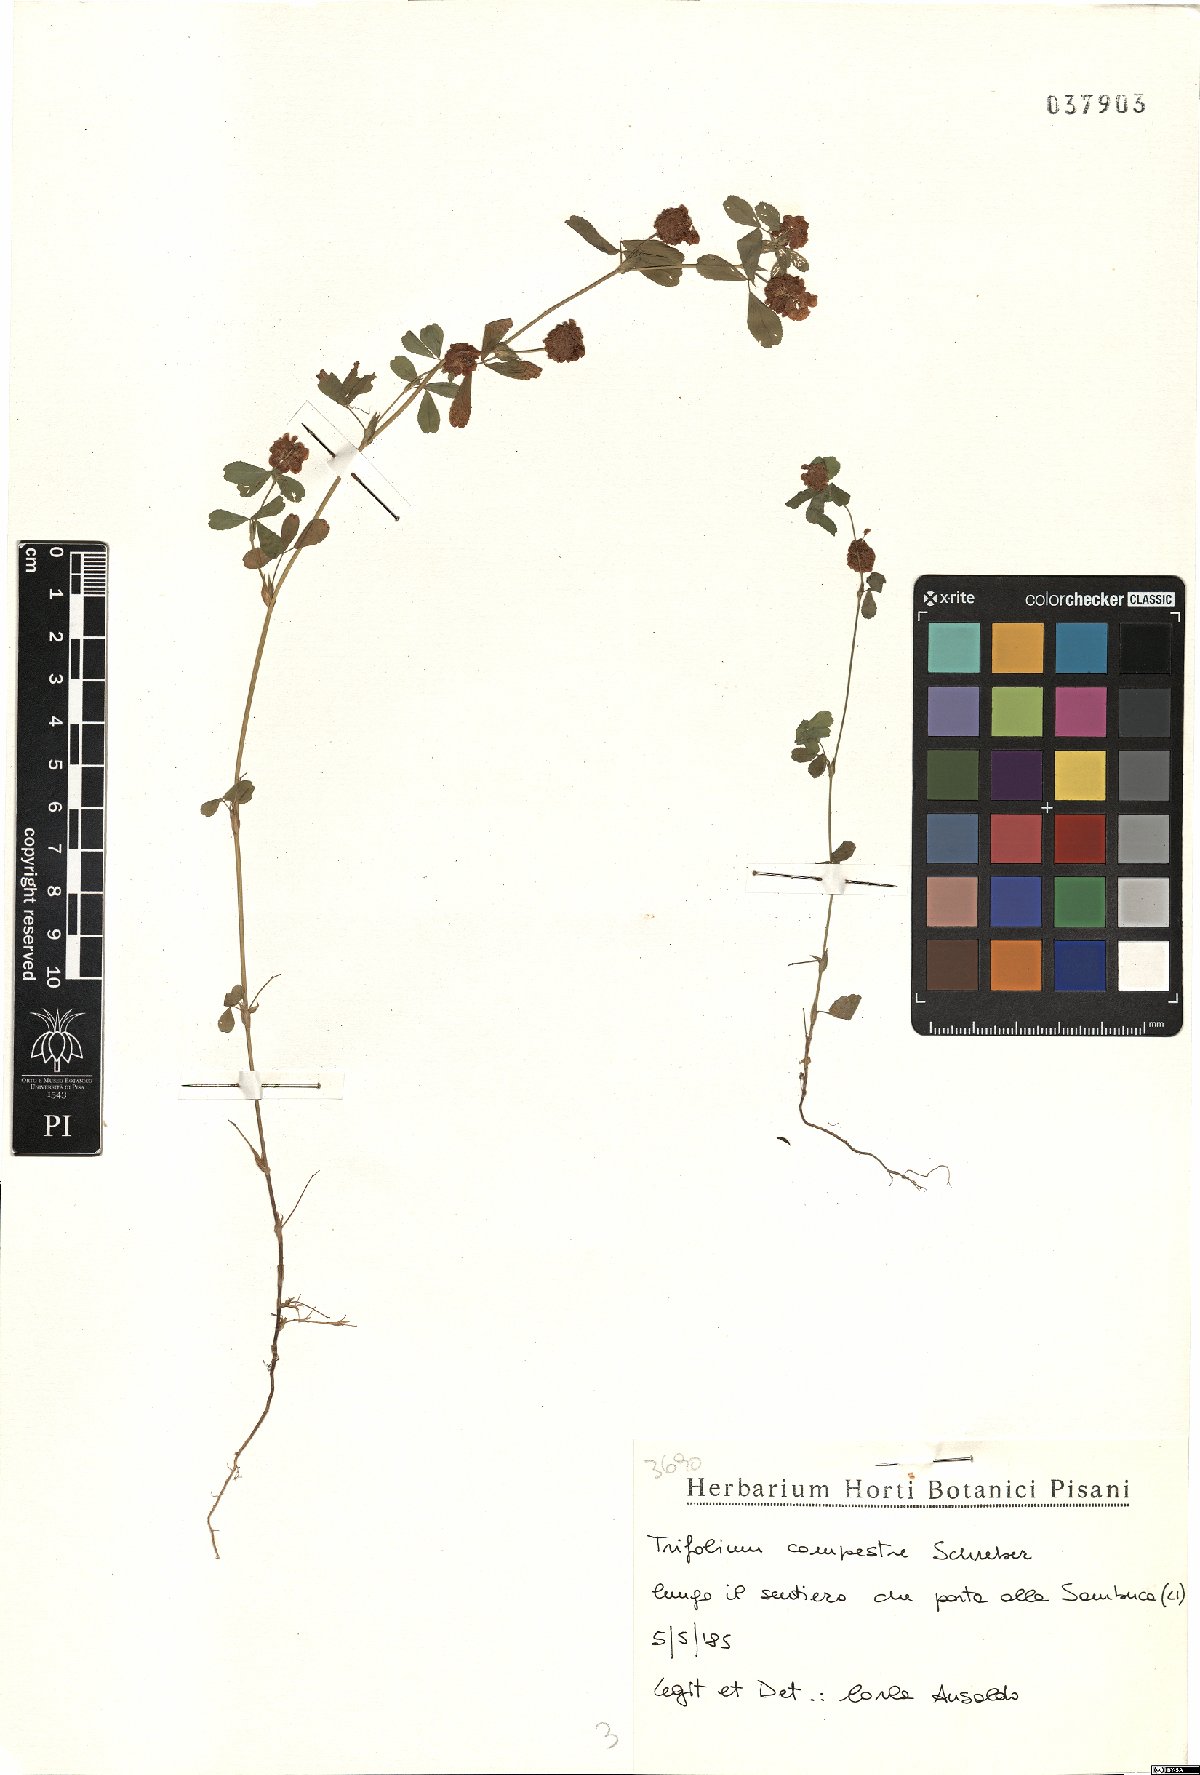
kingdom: Plantae
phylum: Tracheophyta
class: Magnoliopsida
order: Fabales
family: Fabaceae
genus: Trifolium
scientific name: Trifolium campestre
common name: Field clover
